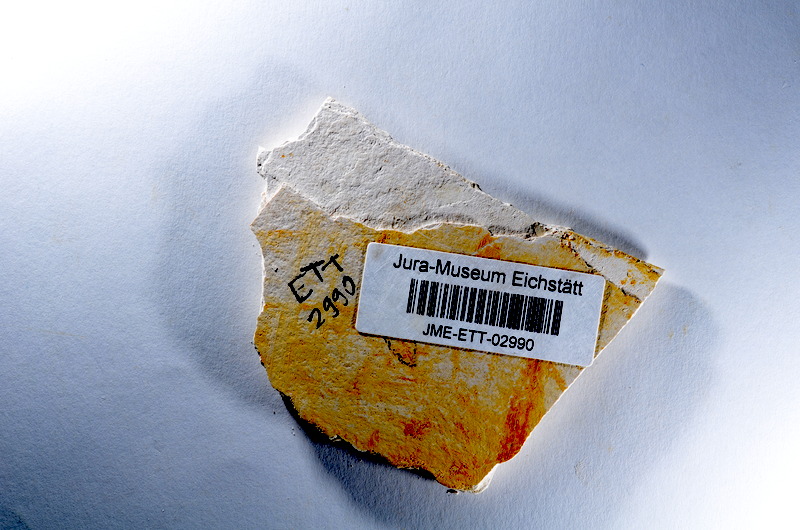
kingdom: Animalia
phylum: Chordata
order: Salmoniformes
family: Orthogonikleithridae
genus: Orthogonikleithrus
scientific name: Orthogonikleithrus hoelli
